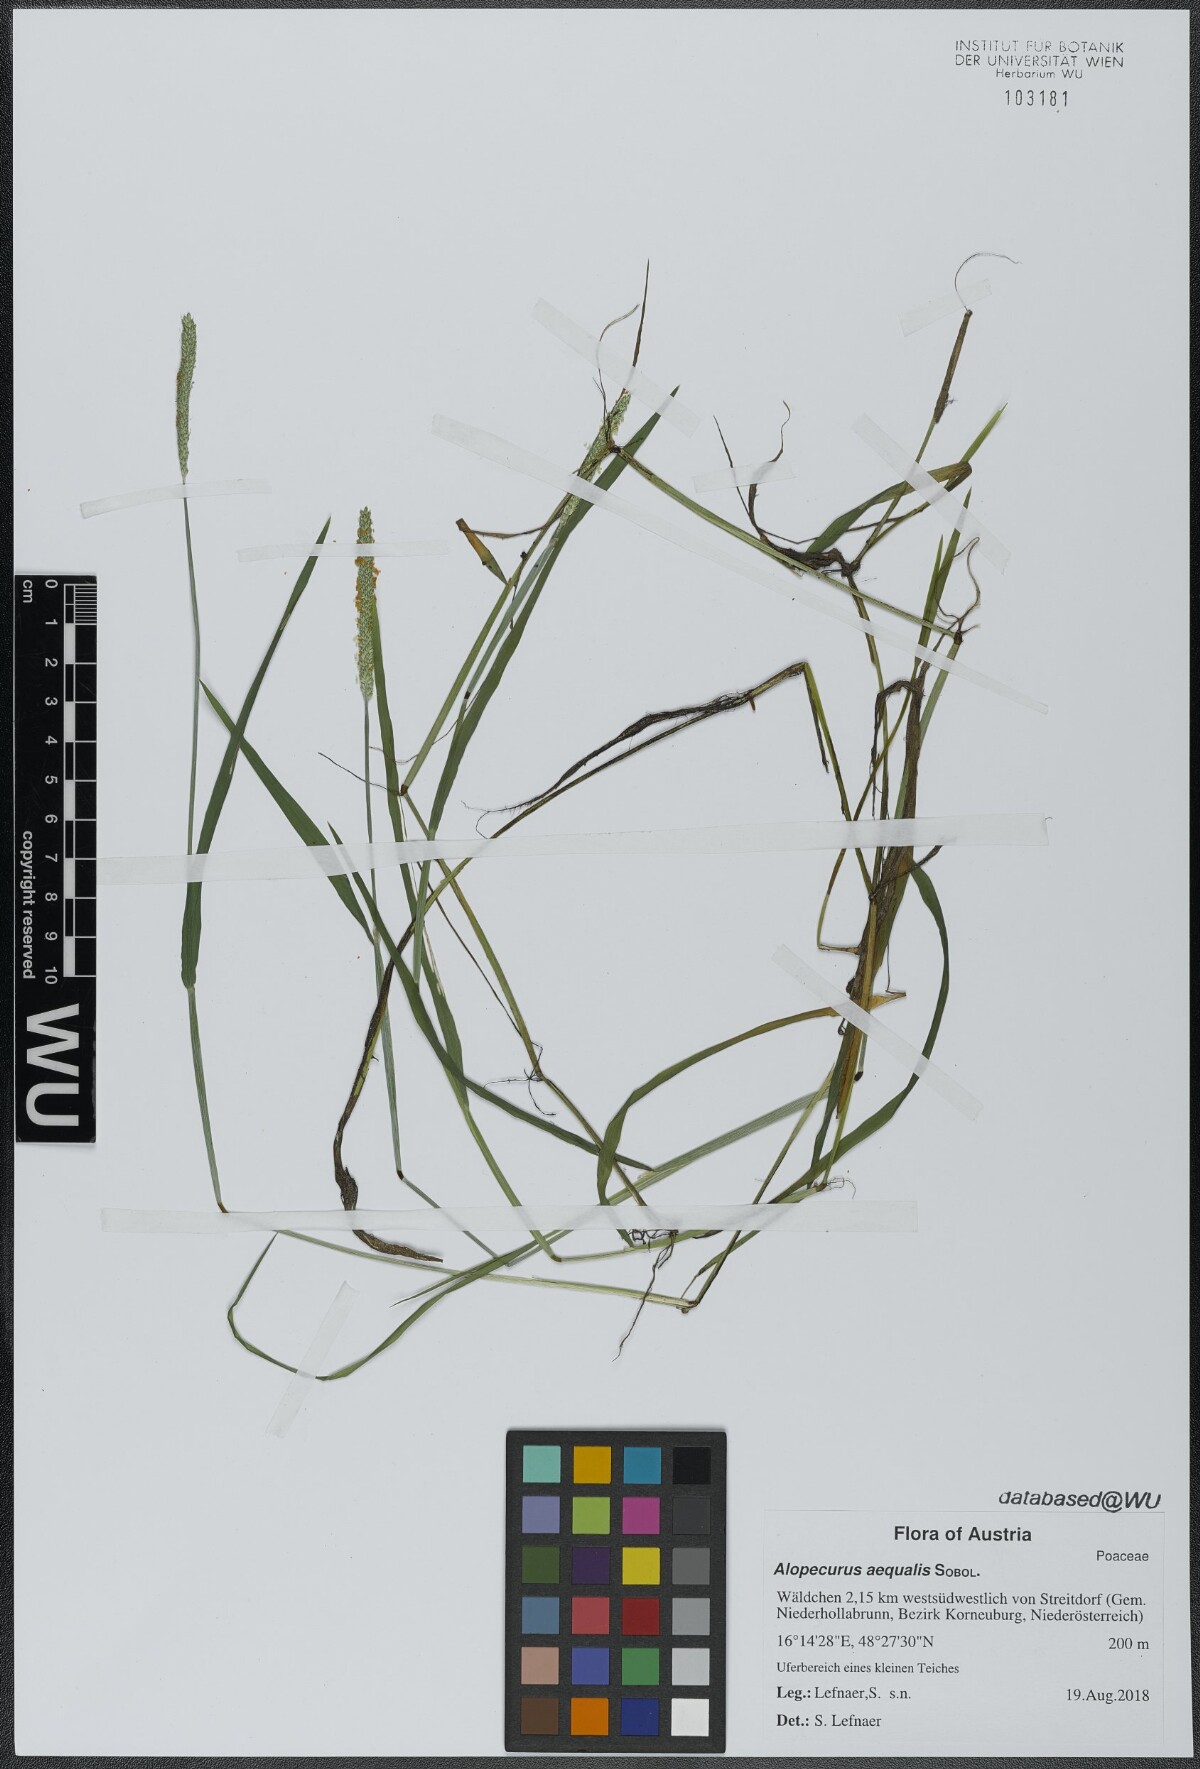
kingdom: Plantae
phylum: Tracheophyta
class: Liliopsida
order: Poales
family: Poaceae
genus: Alopecurus
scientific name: Alopecurus aequalis
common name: Orange foxtail
